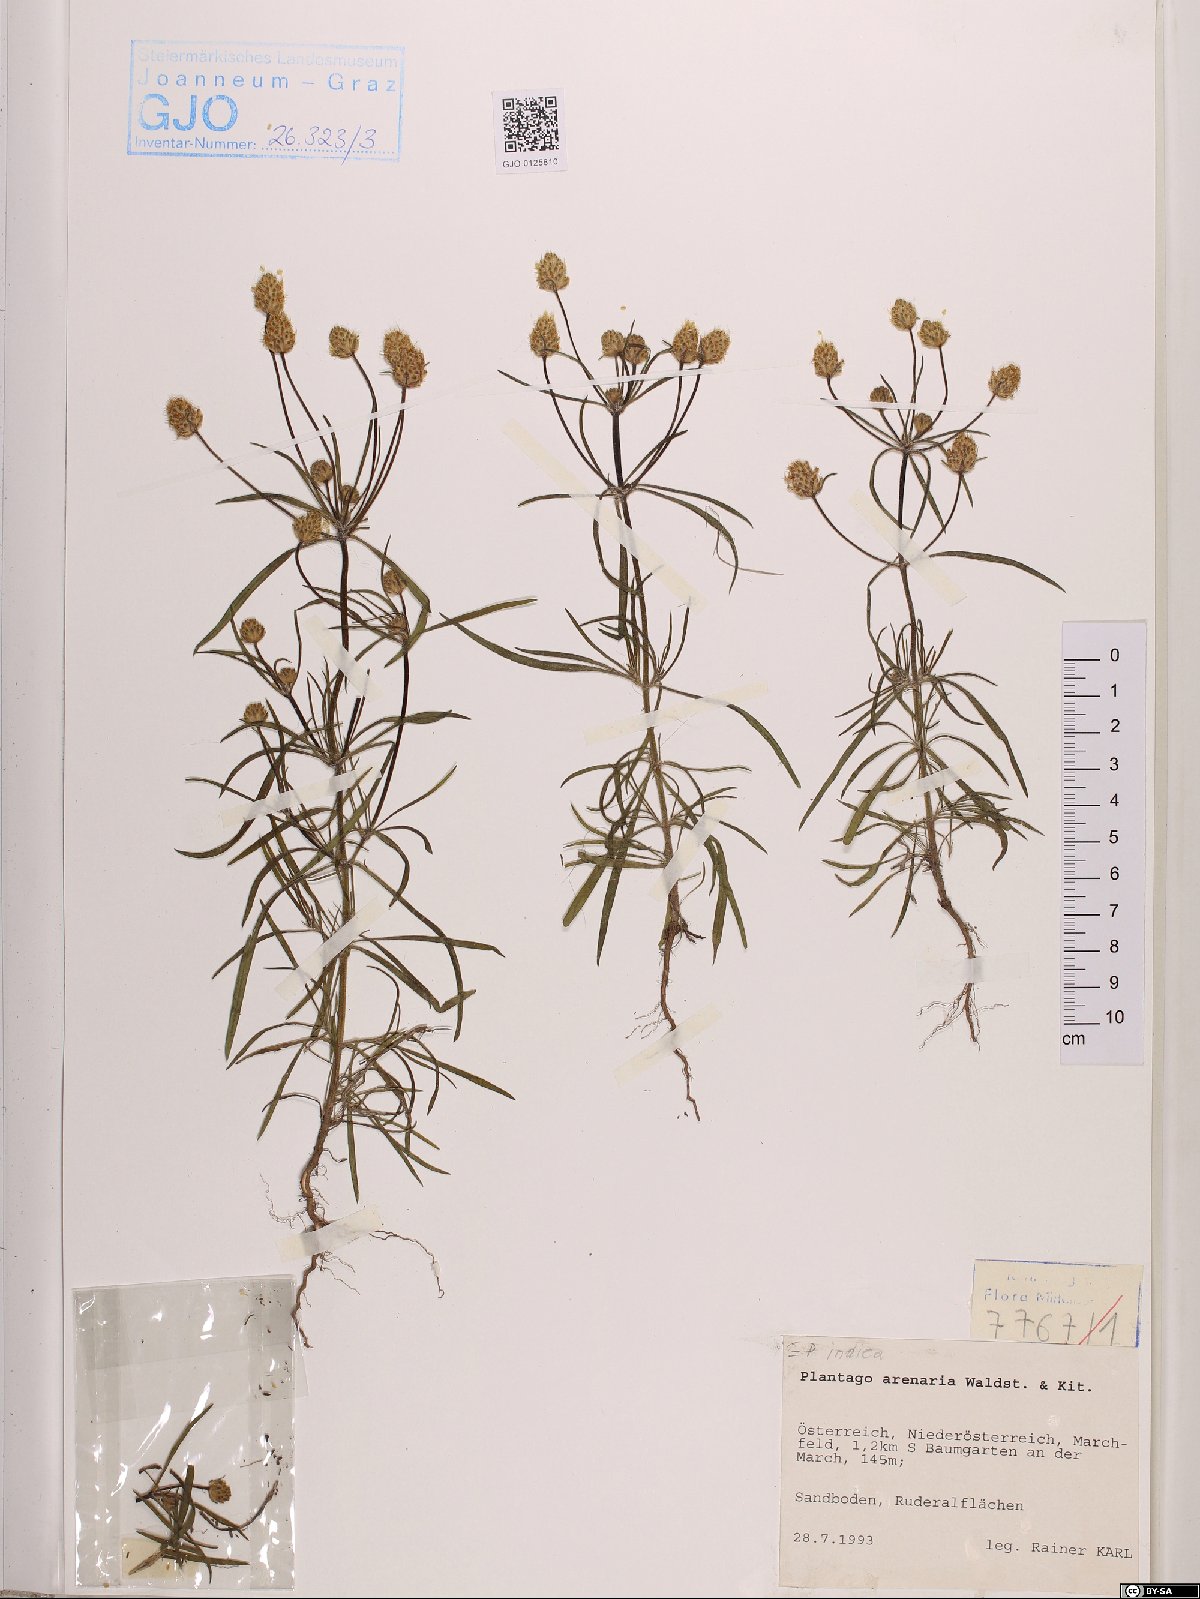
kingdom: Plantae
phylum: Tracheophyta
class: Magnoliopsida
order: Lamiales
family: Plantaginaceae
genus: Plantago
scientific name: Plantago arenaria
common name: Branched plantain
